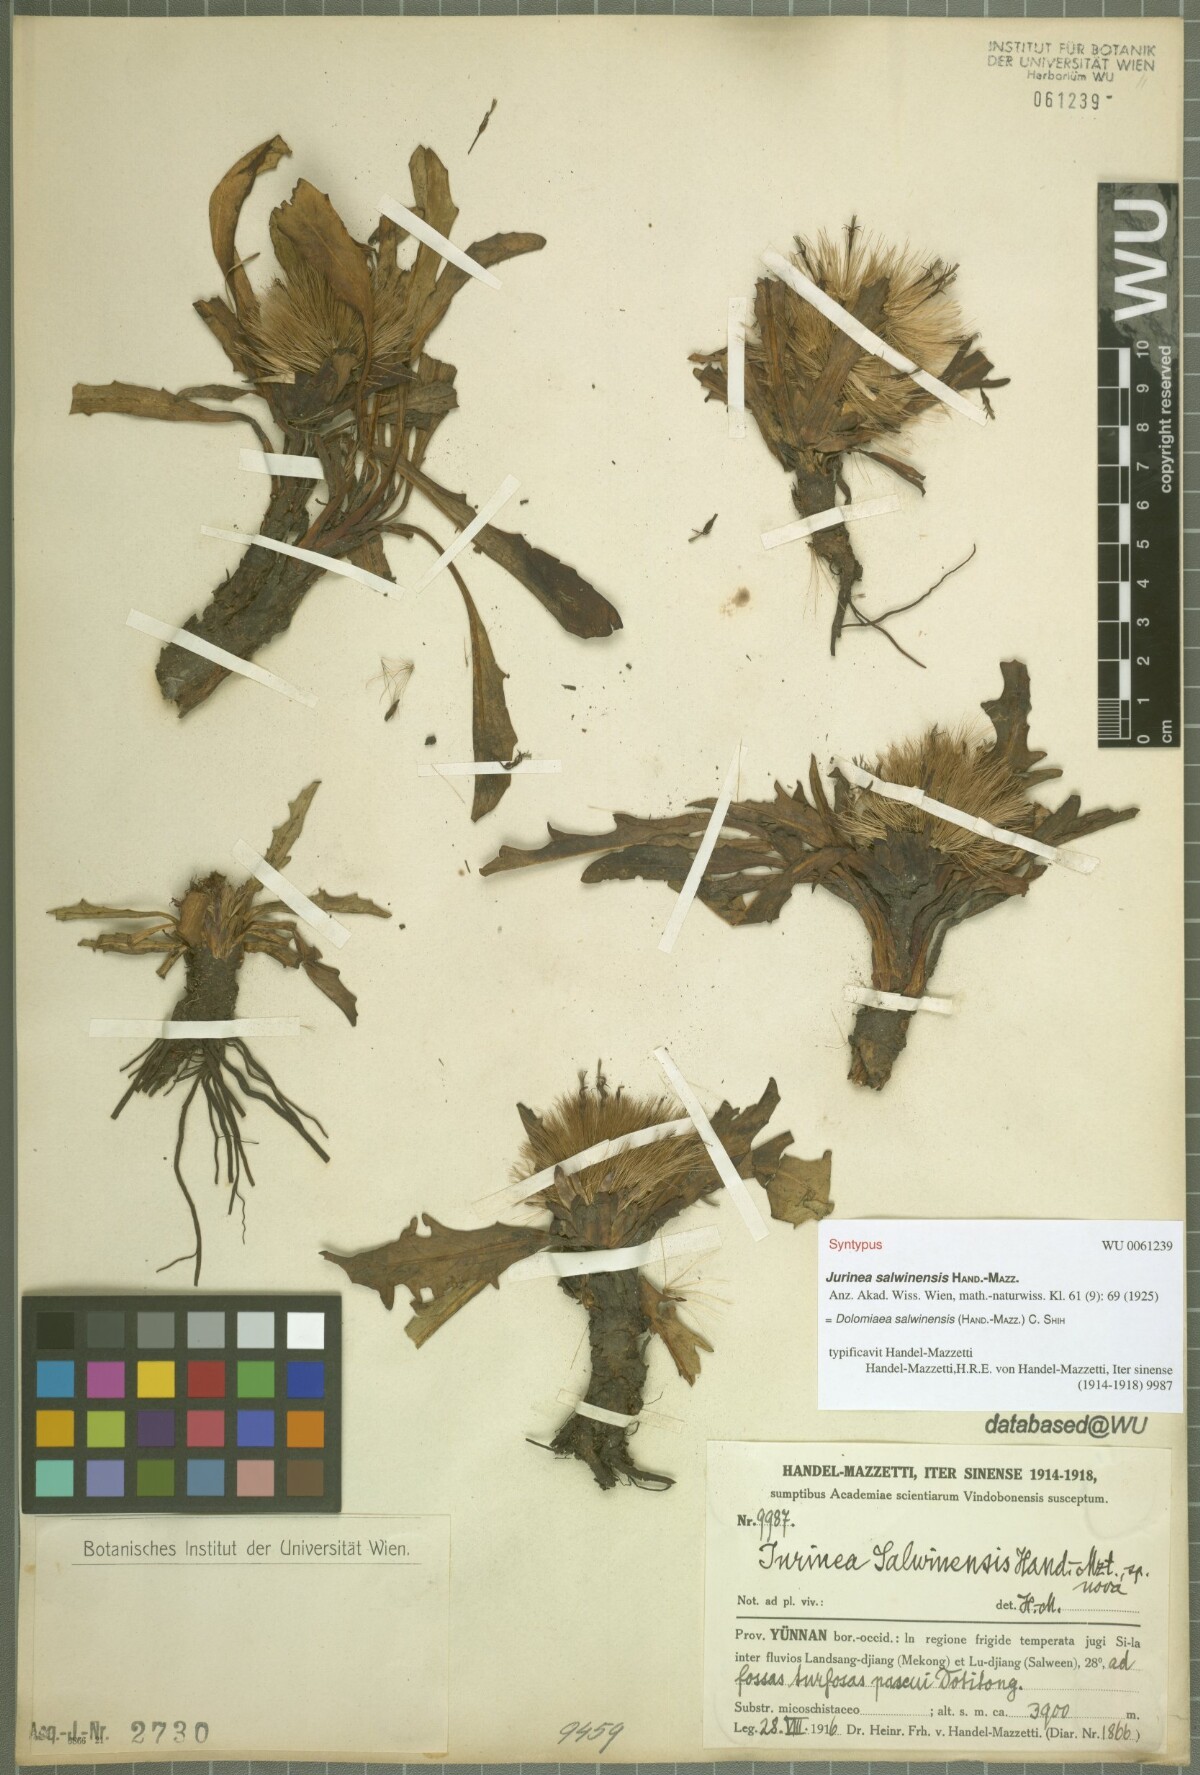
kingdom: Plantae
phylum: Tracheophyta
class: Magnoliopsida
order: Asterales
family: Asteraceae
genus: Dolomiaea
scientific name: Dolomiaea salwinensis
